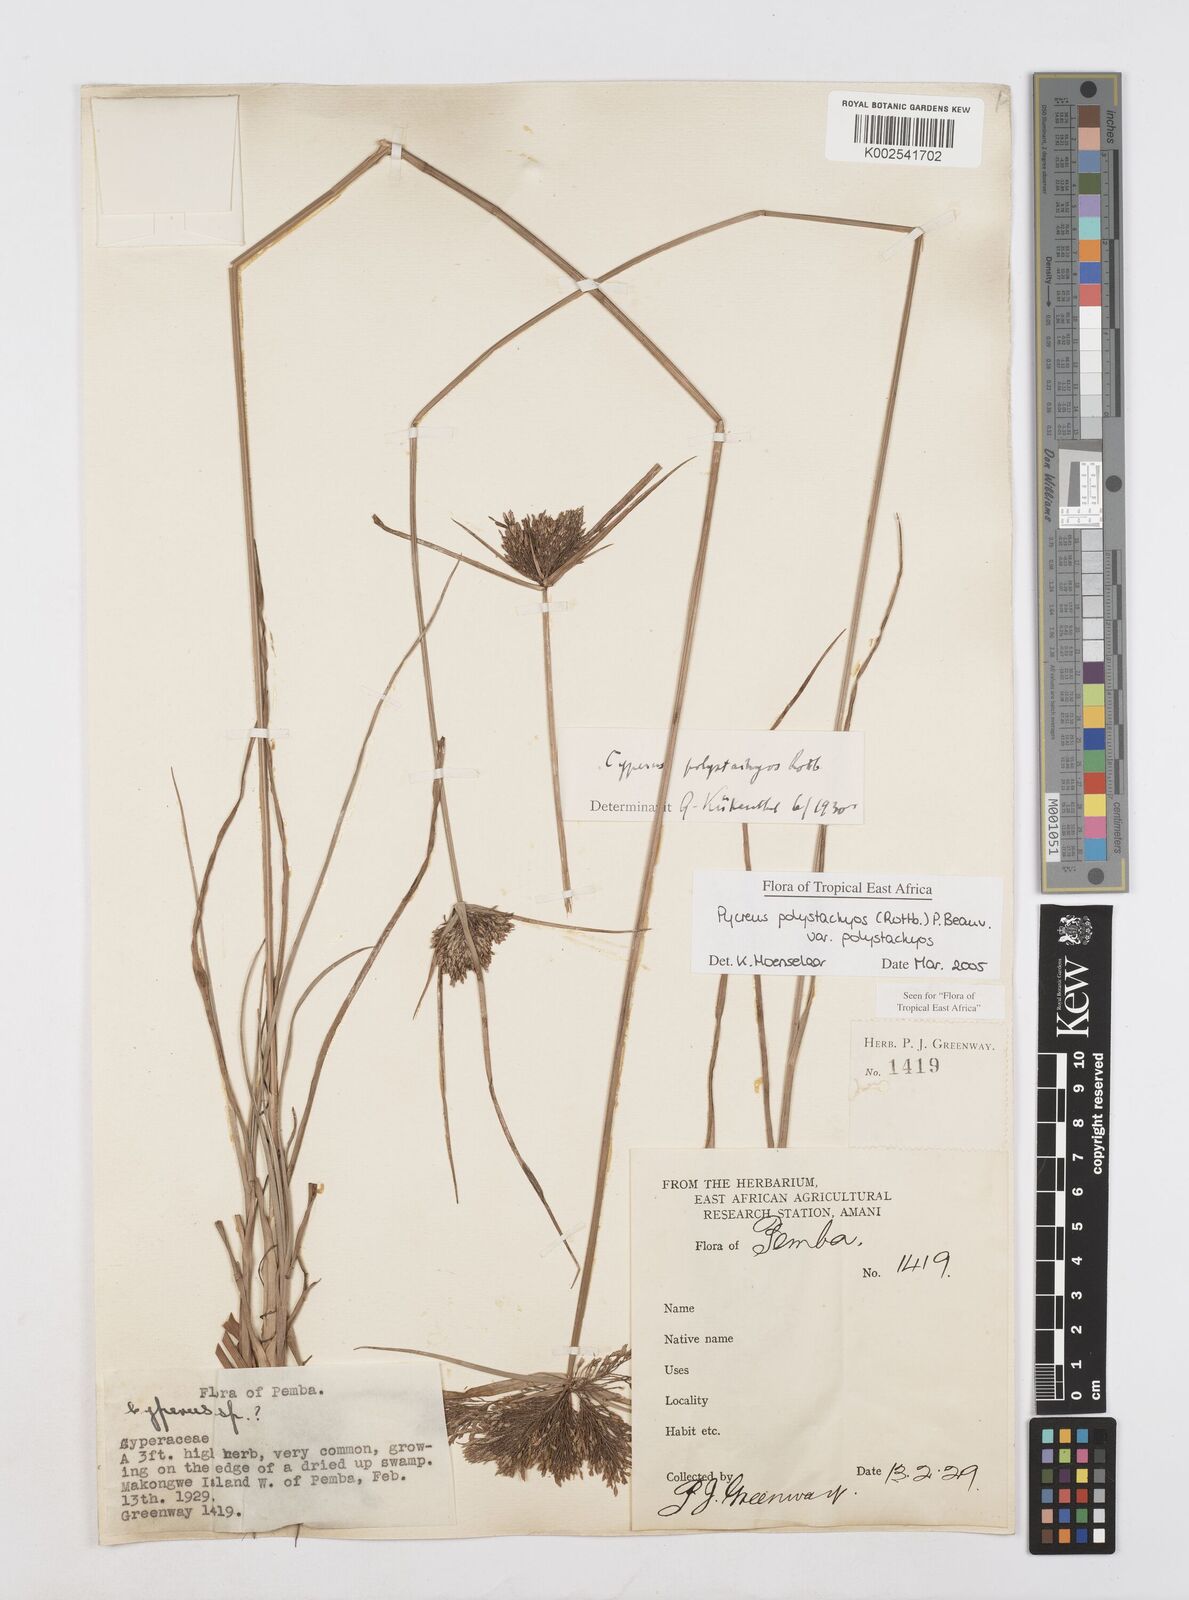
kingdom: Plantae
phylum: Tracheophyta
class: Liliopsida
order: Poales
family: Cyperaceae
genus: Cyperus
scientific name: Cyperus polystachyos
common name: Bunchy flat sedge
